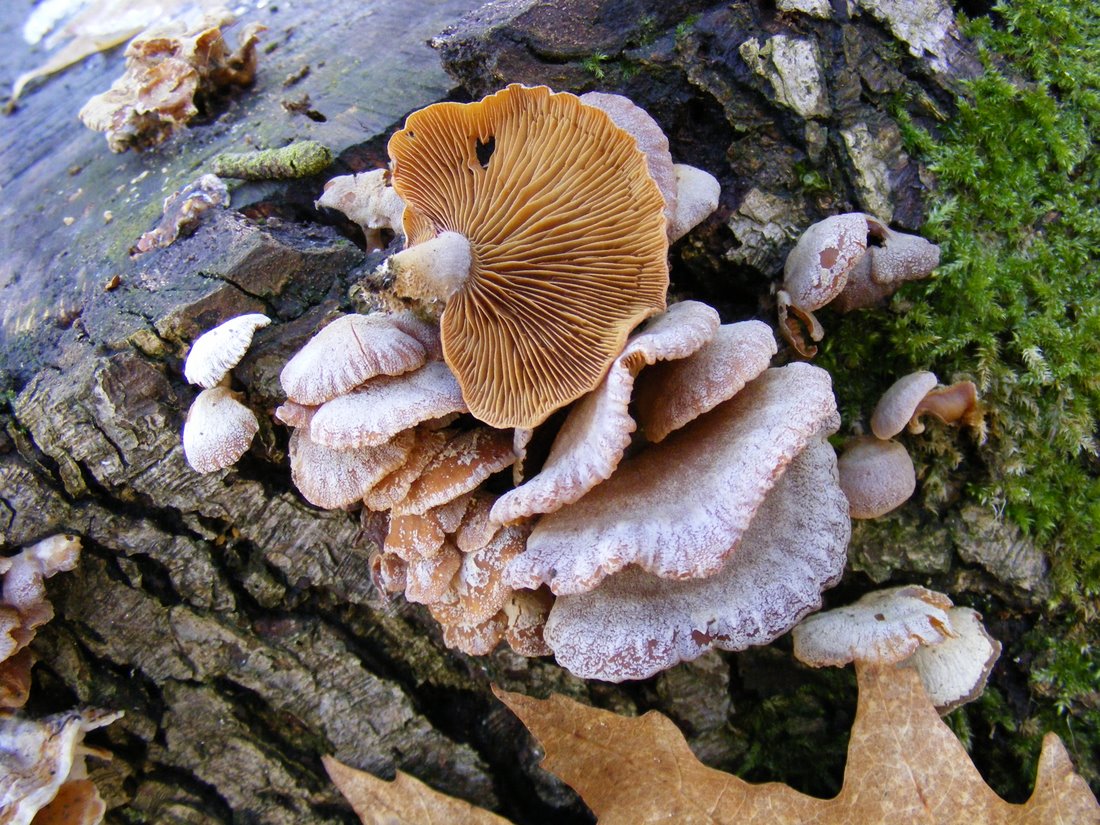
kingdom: Fungi
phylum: Basidiomycota
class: Agaricomycetes
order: Agaricales
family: Mycenaceae
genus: Panellus
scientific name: Panellus stipticus
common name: kliddet epaulethat
